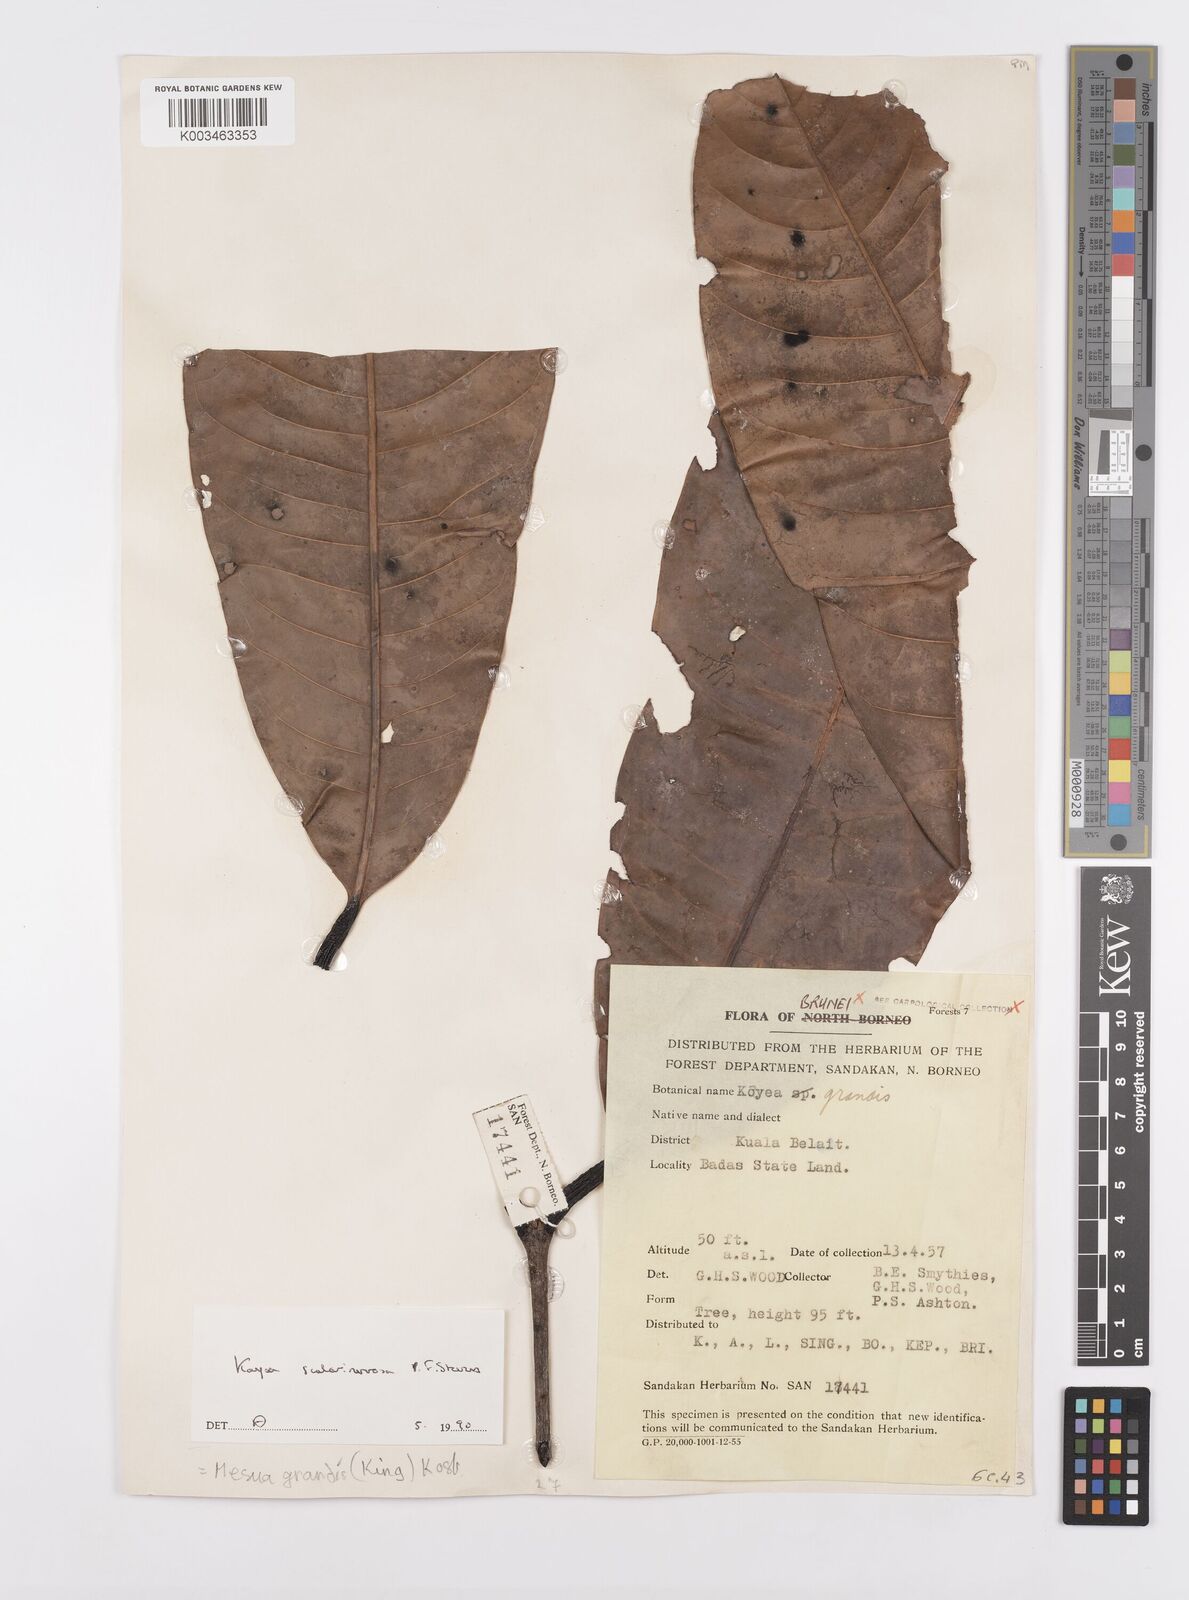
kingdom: Plantae
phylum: Tracheophyta
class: Magnoliopsida
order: Malpighiales
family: Calophyllaceae
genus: Kayea
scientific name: Kayea scalarinervosa
